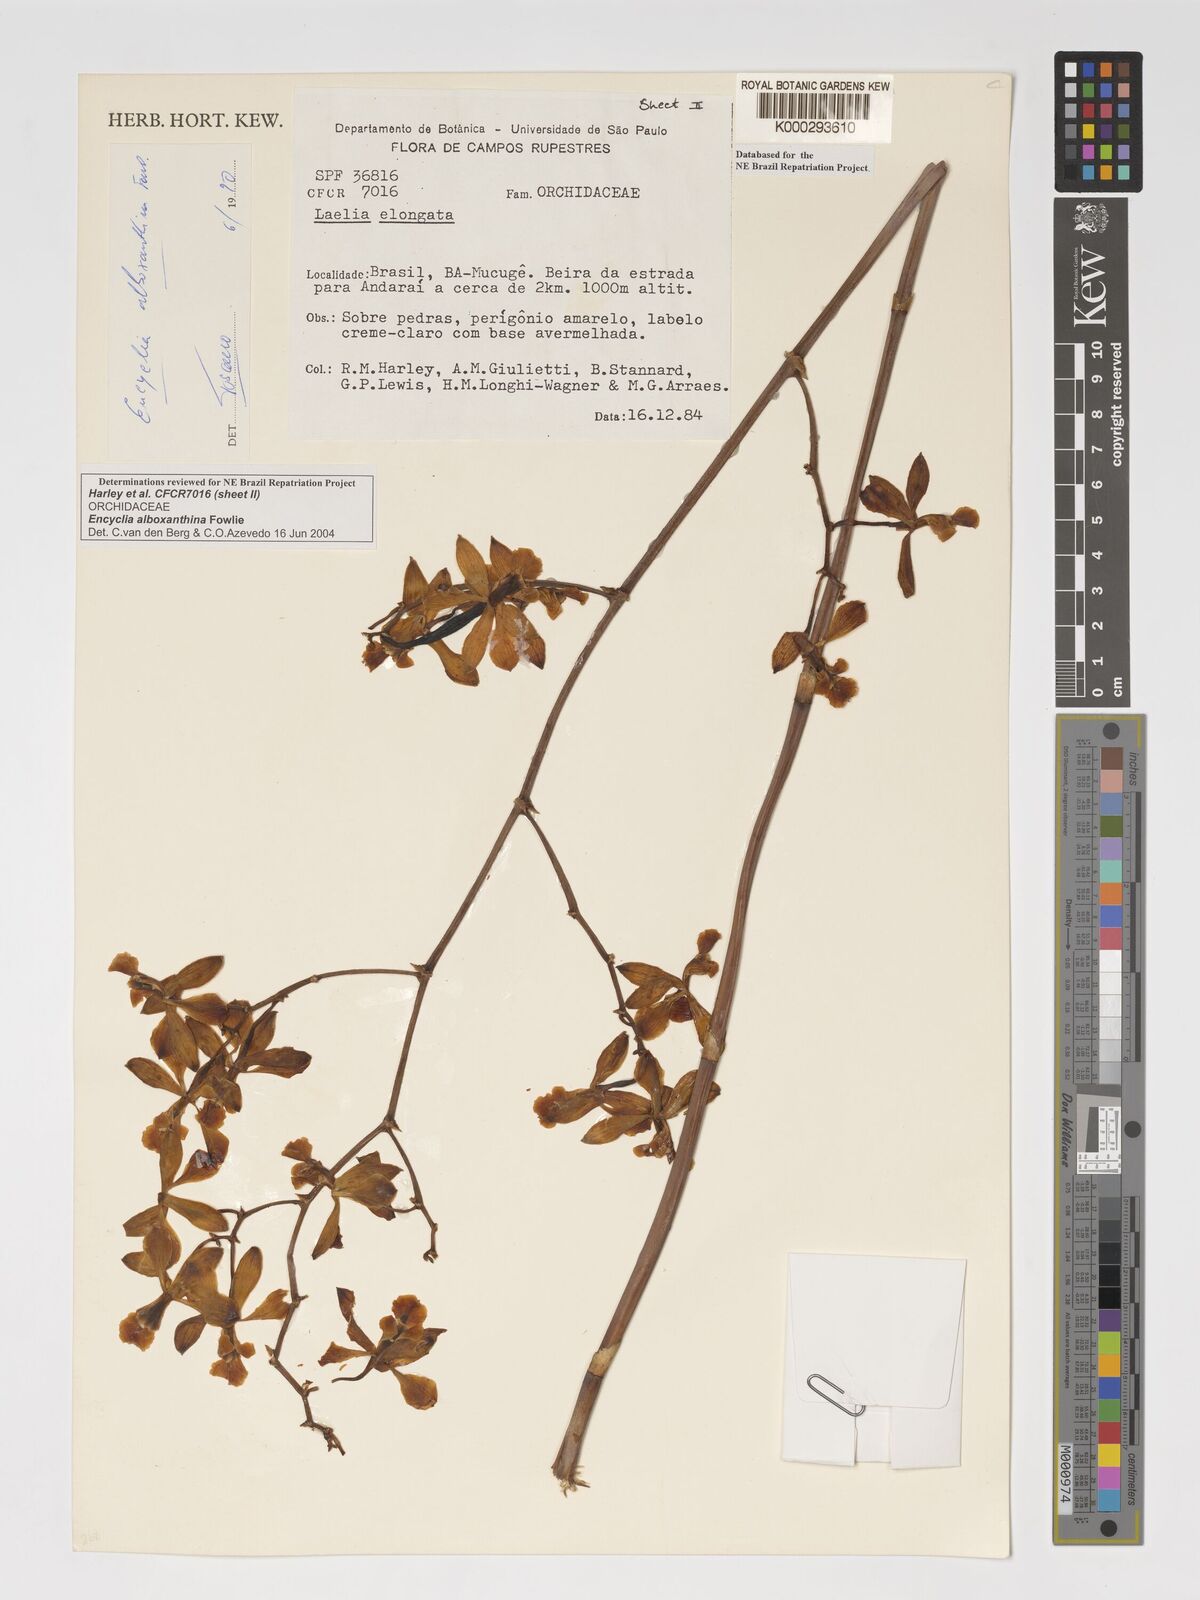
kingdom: Plantae
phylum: Tracheophyta
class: Liliopsida
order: Asparagales
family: Orchidaceae
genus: Encyclia
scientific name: Encyclia alboxanthina
